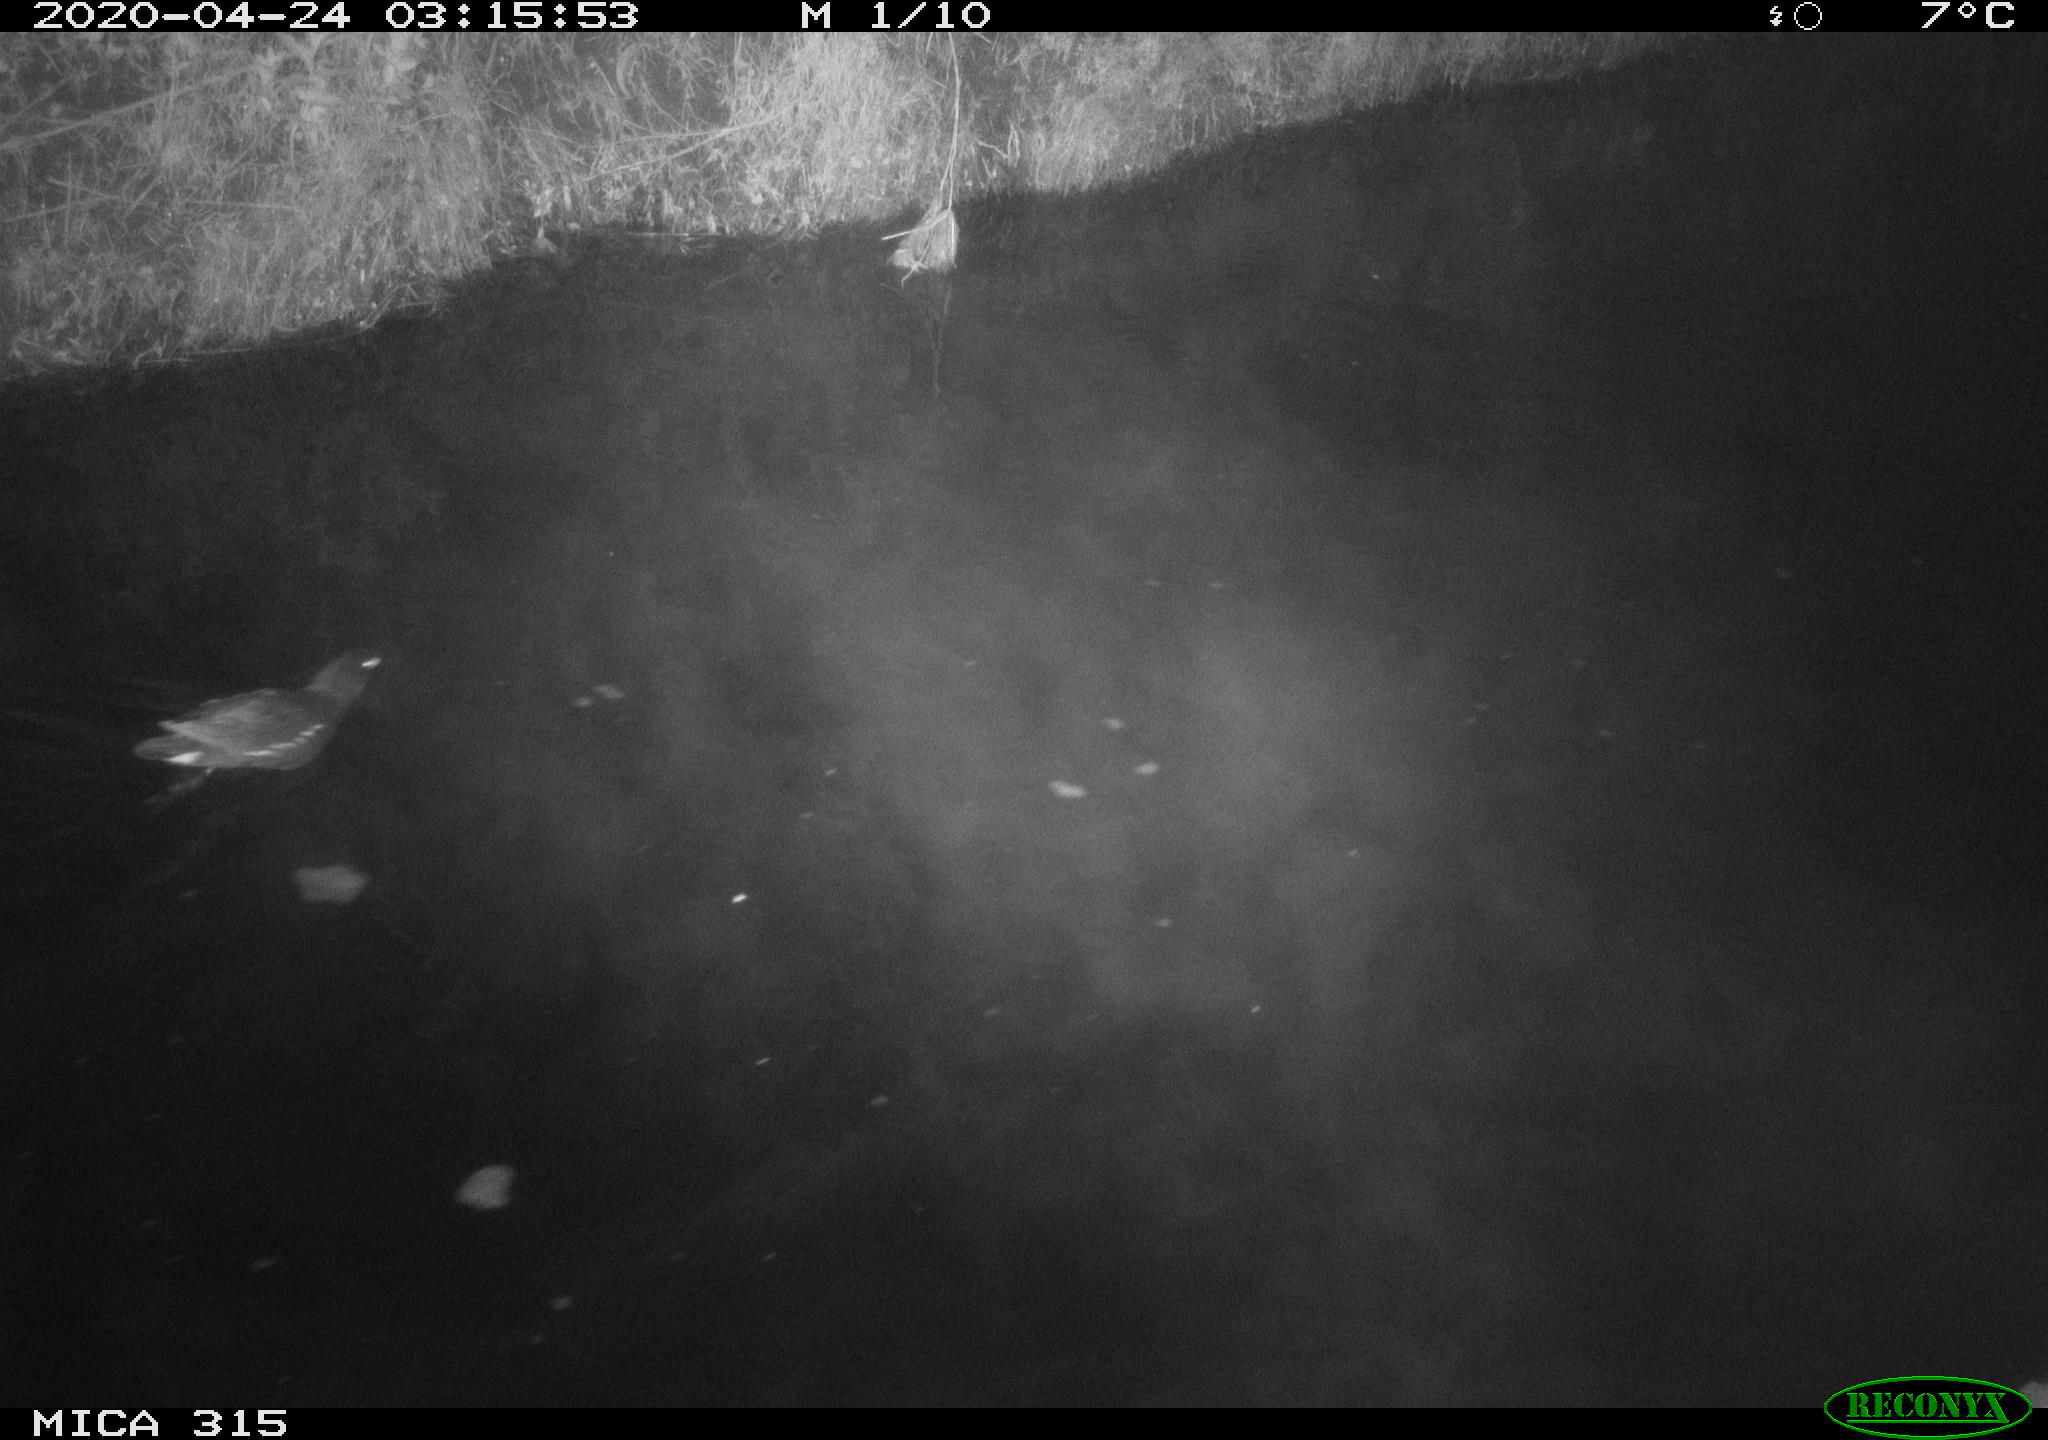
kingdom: Animalia
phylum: Chordata
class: Aves
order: Gruiformes
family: Rallidae
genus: Gallinula
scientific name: Gallinula chloropus
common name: Common moorhen
